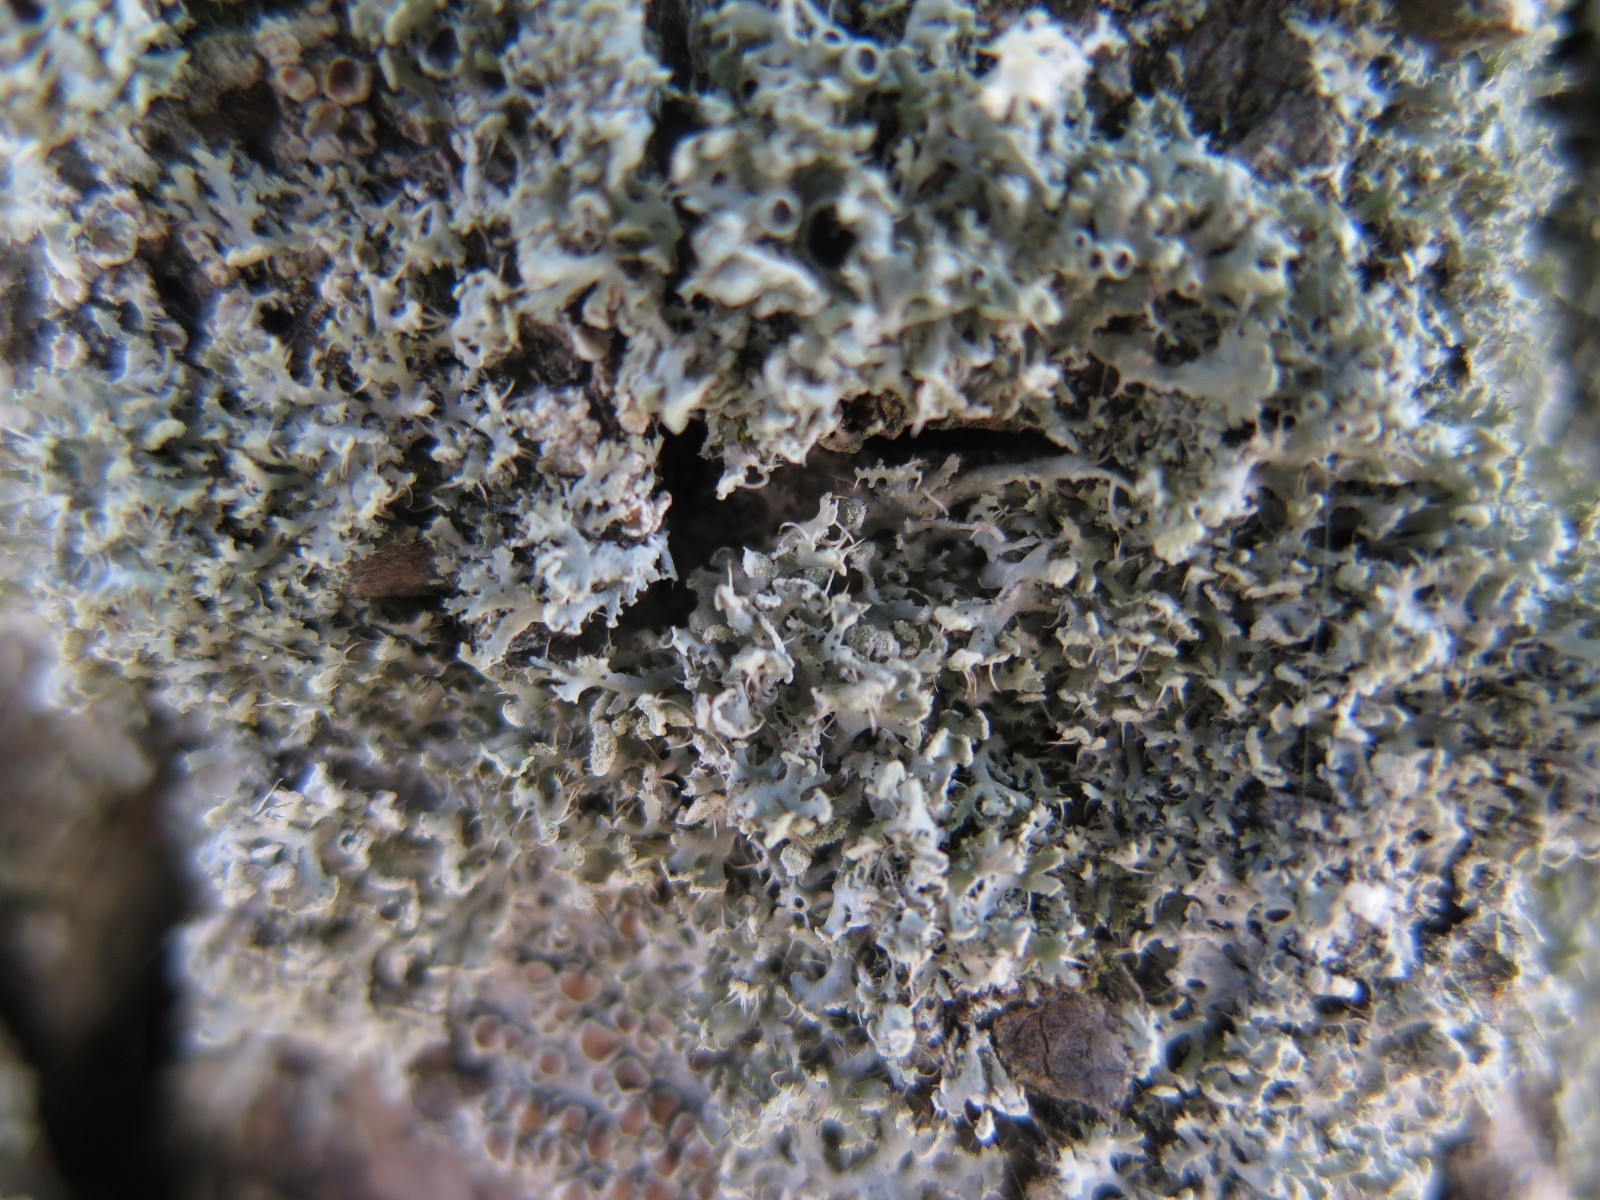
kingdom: Fungi
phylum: Ascomycota
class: Lecanoromycetes
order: Caliciales
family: Physciaceae
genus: Physcia
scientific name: Physcia tenella
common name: spæd rosetlav
